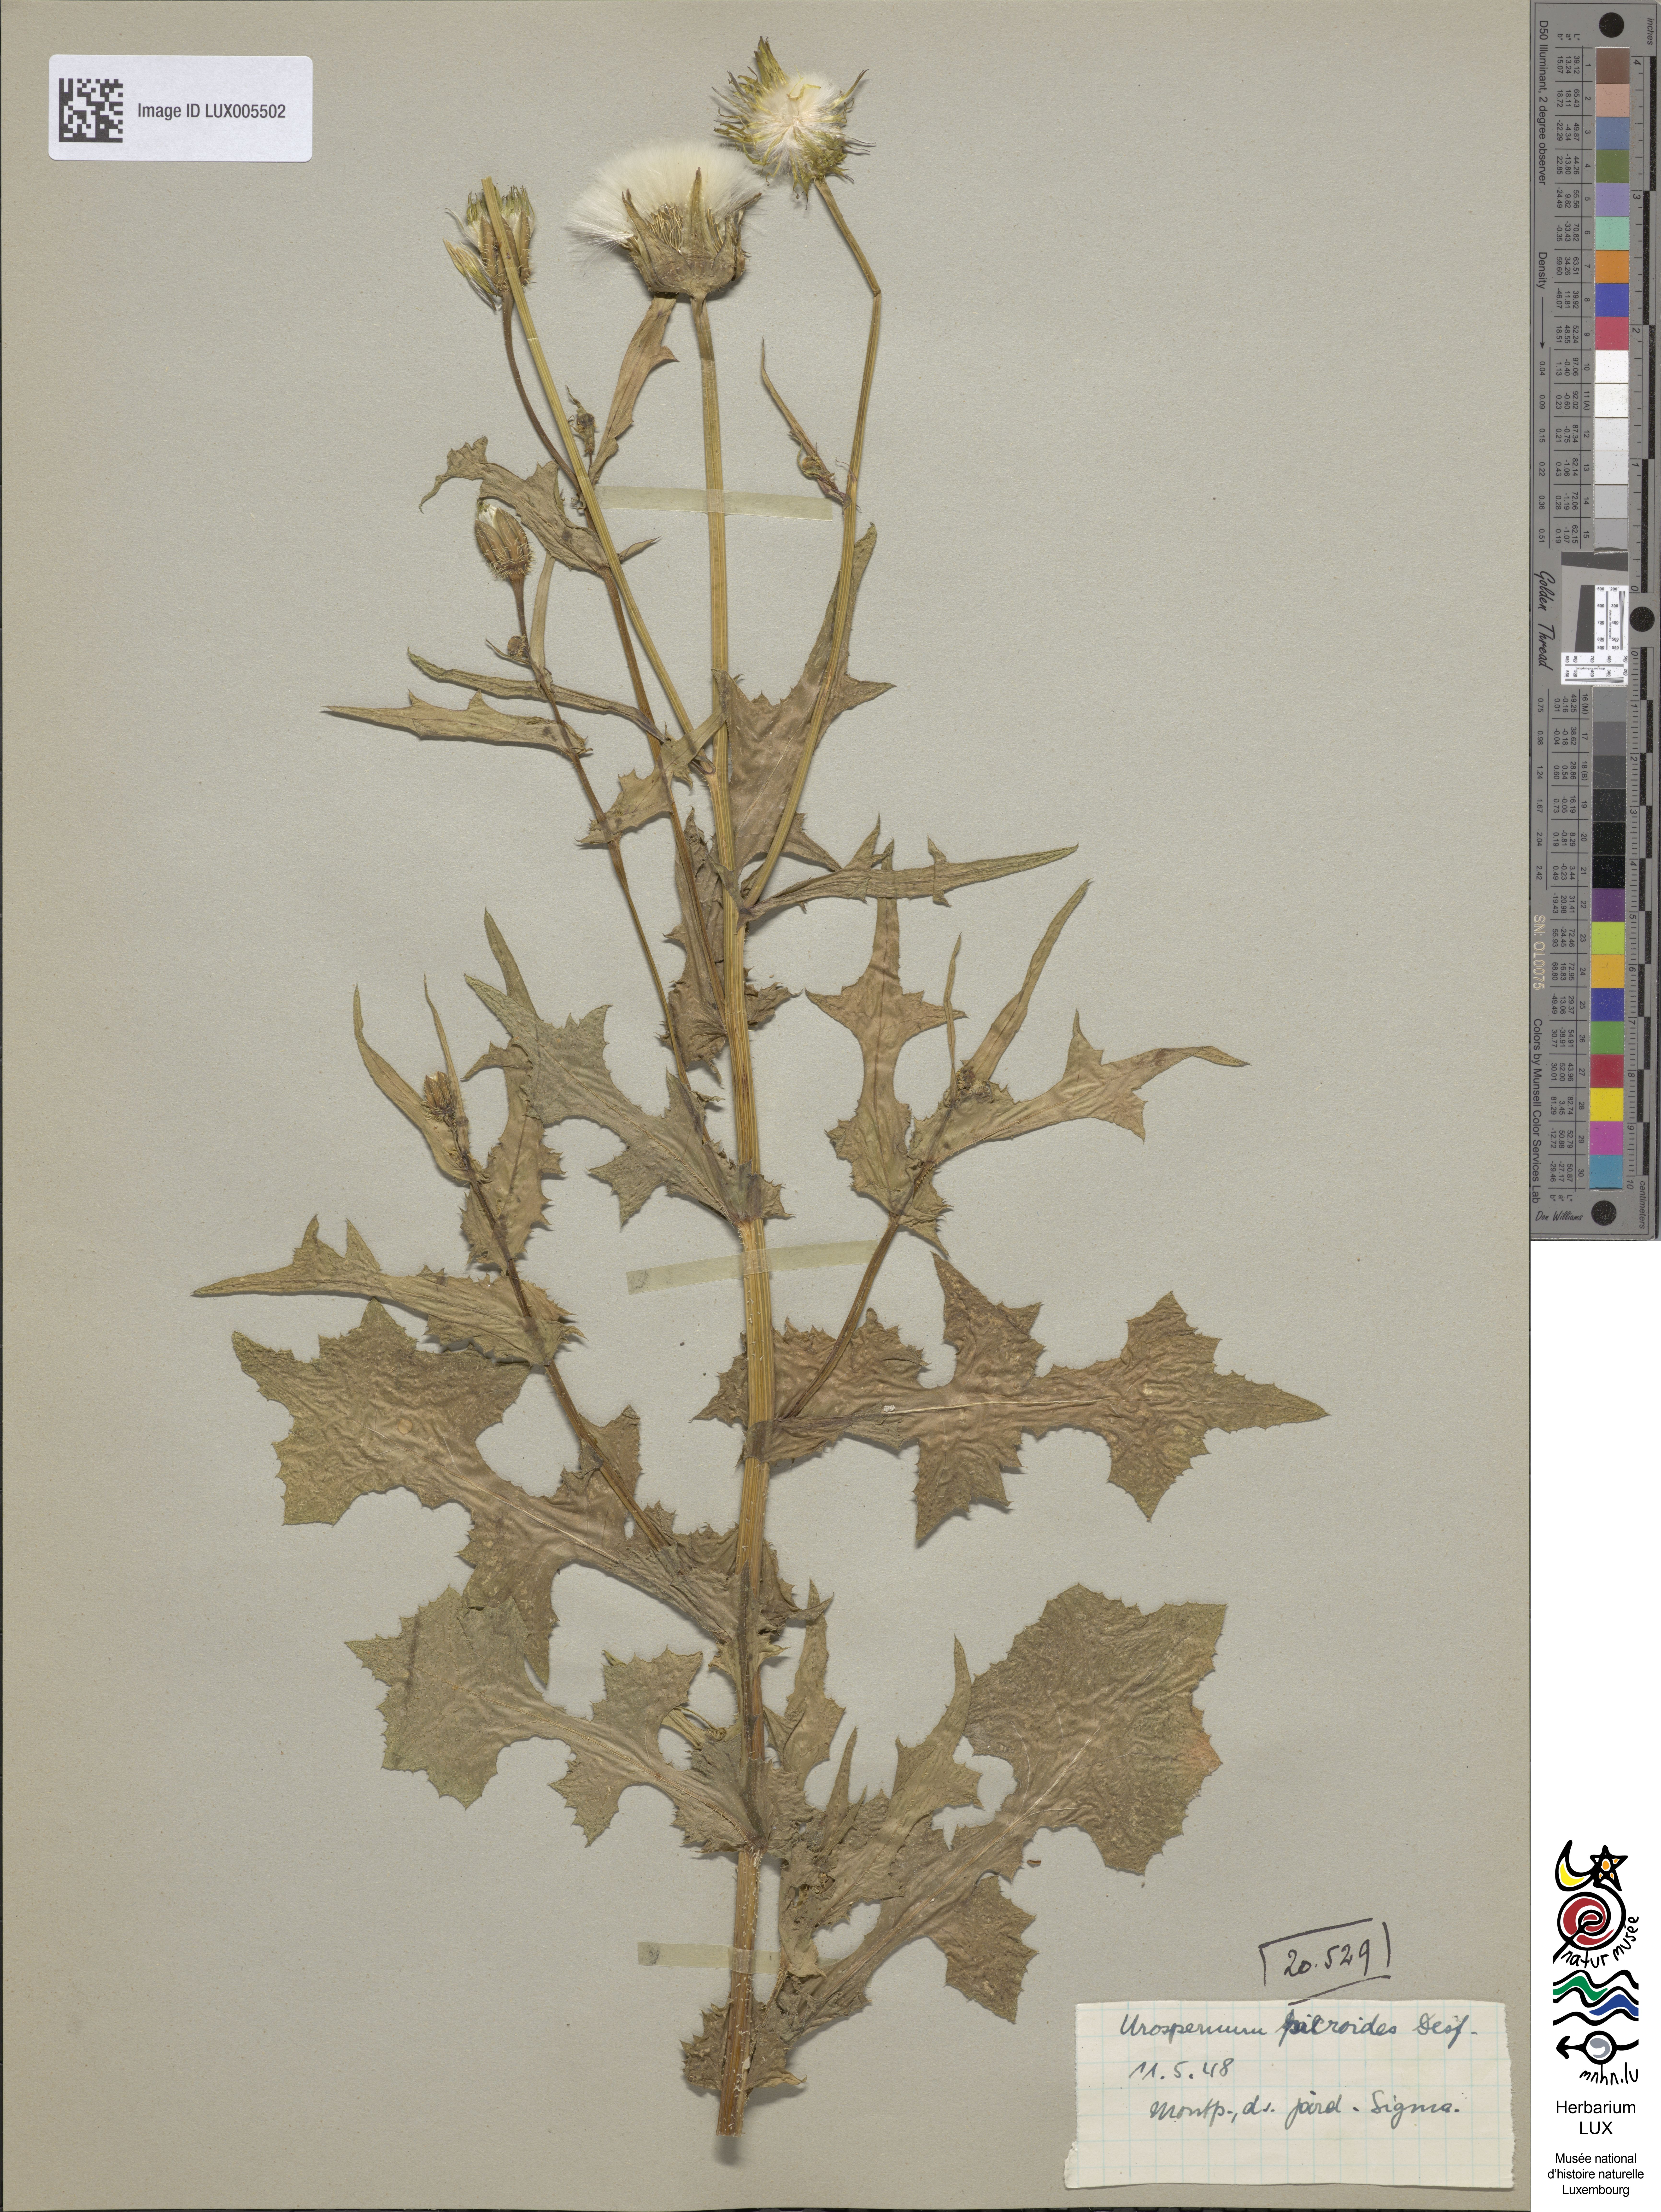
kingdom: Plantae
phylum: Tracheophyta
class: Magnoliopsida
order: Asterales
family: Asteraceae
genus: Urospermum
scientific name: Urospermum picroides
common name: False hawkbit
